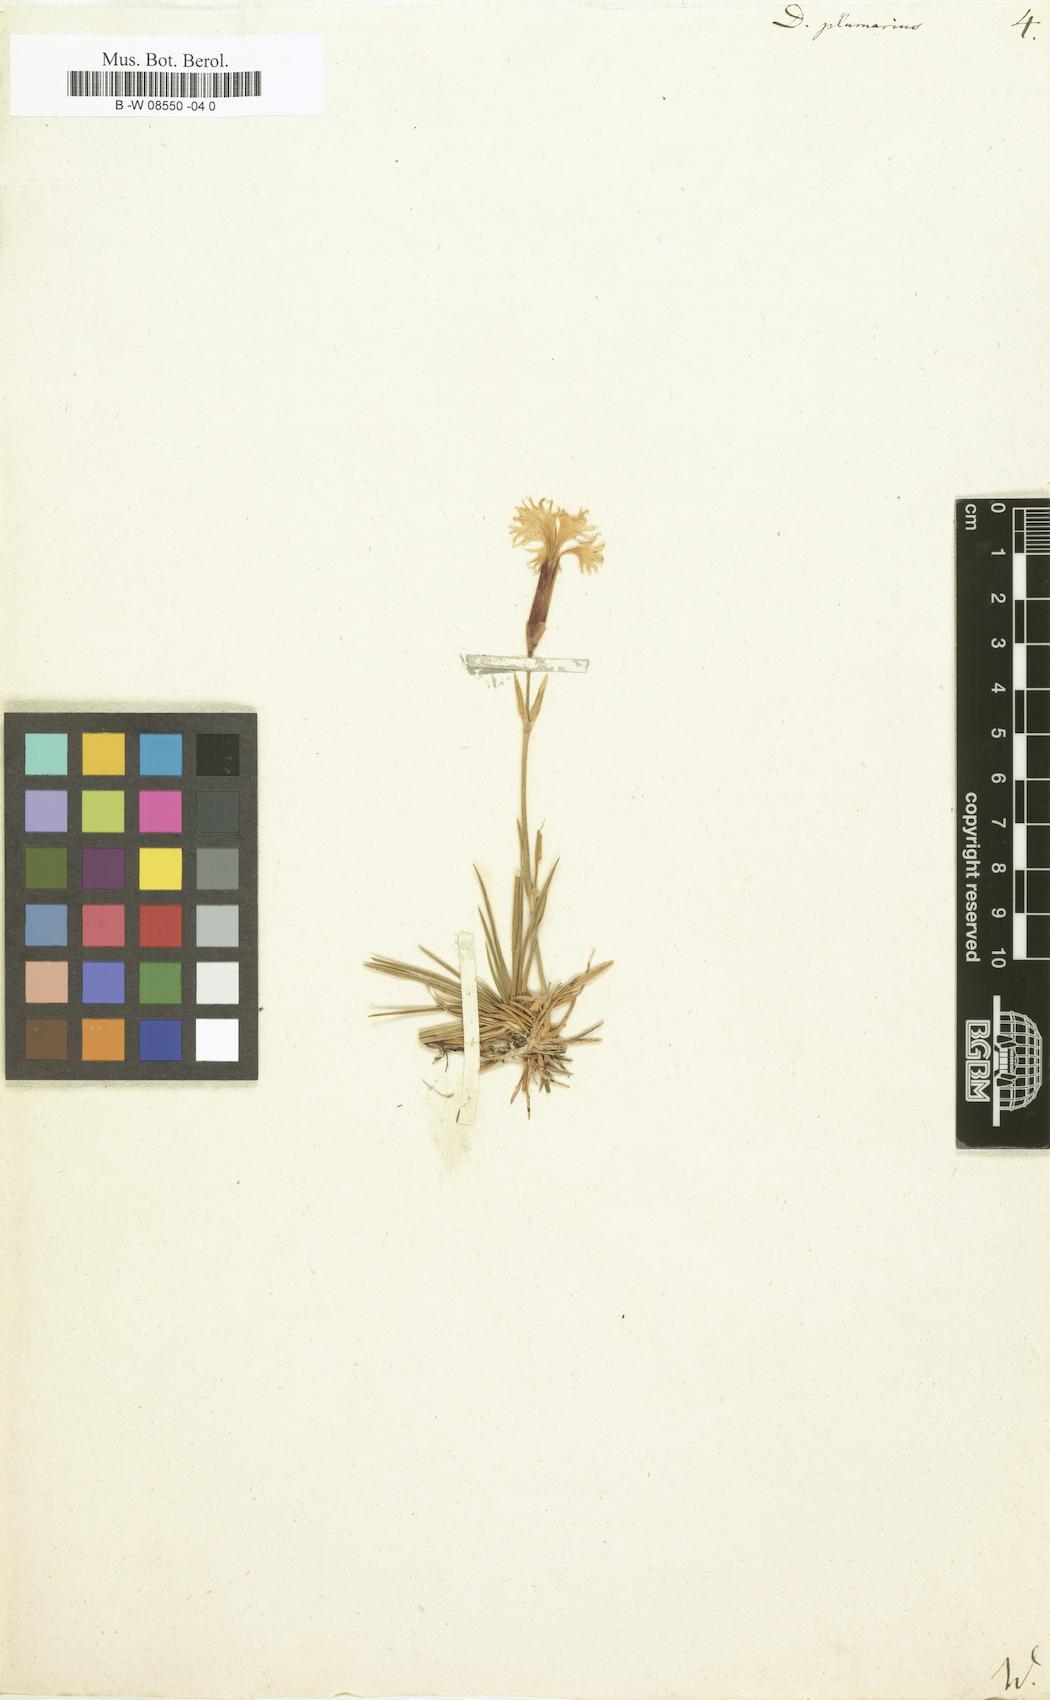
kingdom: Plantae
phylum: Tracheophyta
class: Magnoliopsida
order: Caryophyllales
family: Caryophyllaceae
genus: Dianthus
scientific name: Dianthus plumarius
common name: Pink
